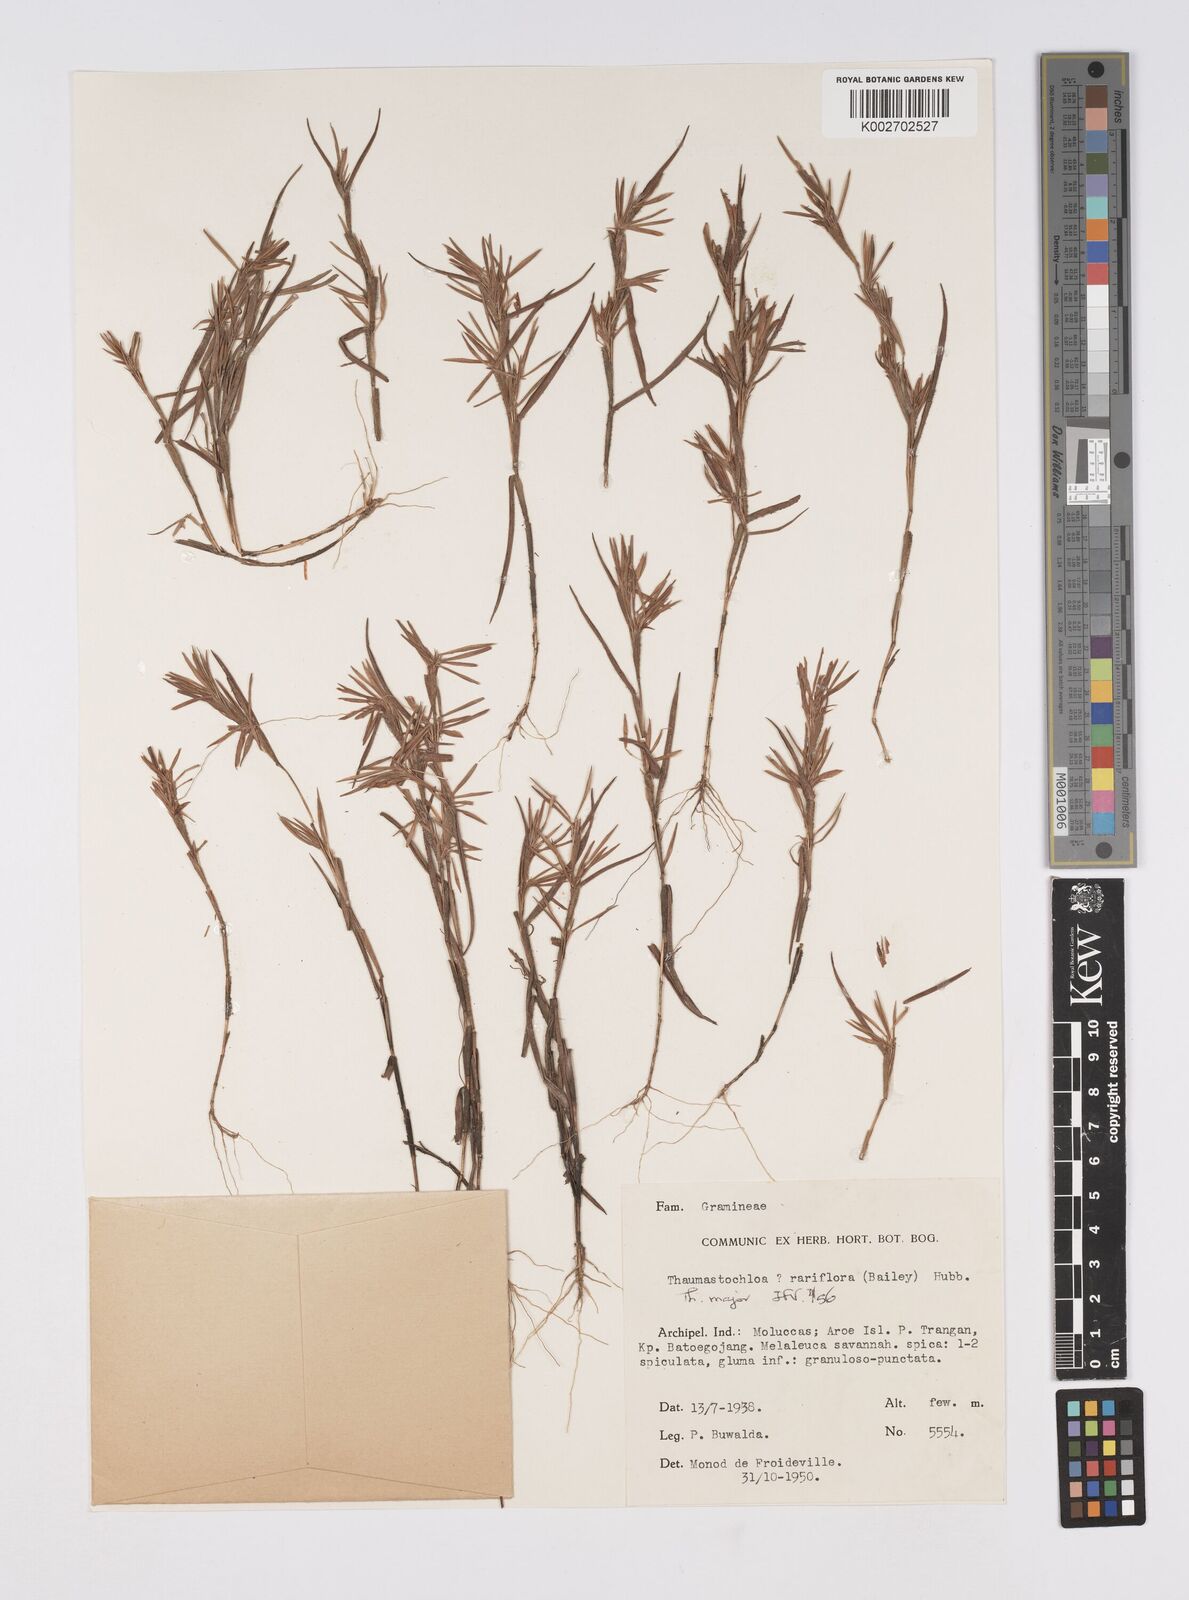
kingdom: Plantae
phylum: Tracheophyta
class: Liliopsida
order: Poales
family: Poaceae
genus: Thaumastochloa
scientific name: Thaumastochloa major
